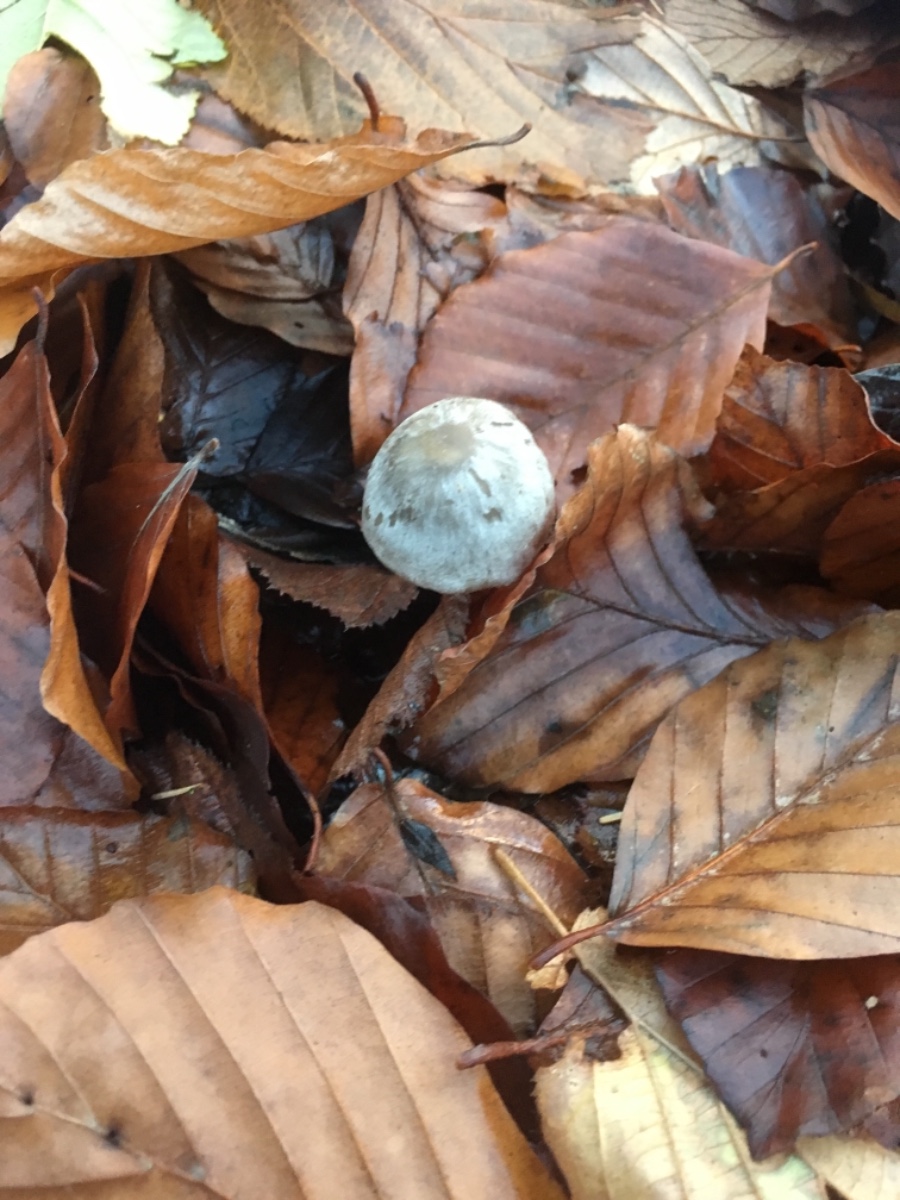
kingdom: Fungi
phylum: Basidiomycota
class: Agaricomycetes
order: Agaricales
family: Omphalotaceae
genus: Rhodocollybia
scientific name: Rhodocollybia asema
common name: horngrå fladhat
